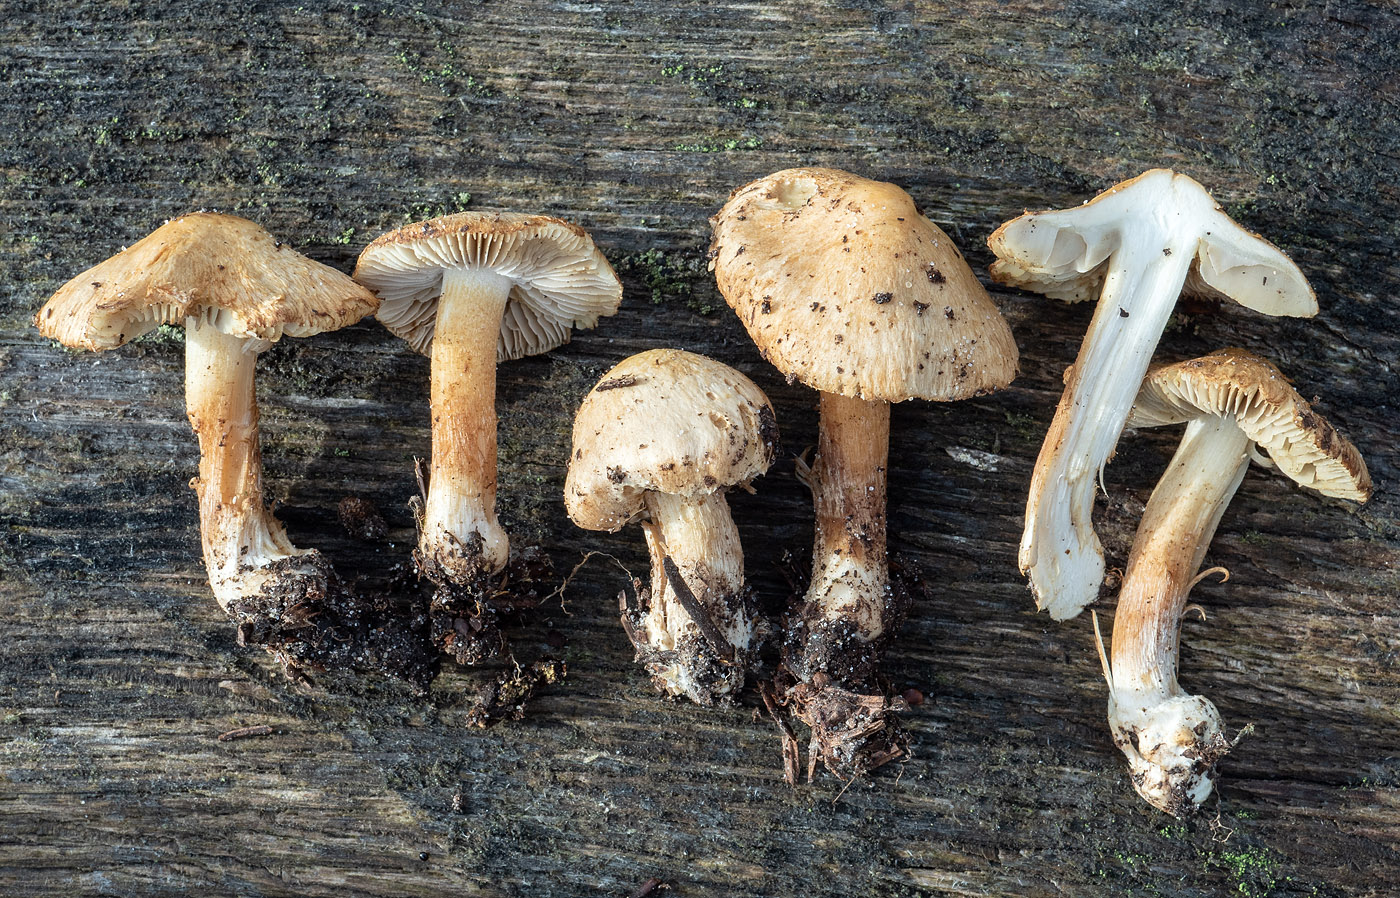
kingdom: Fungi
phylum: Basidiomycota
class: Agaricomycetes
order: Agaricales
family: Inocybaceae
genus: Inocybe
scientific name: Inocybe pseudoscabelliformis
